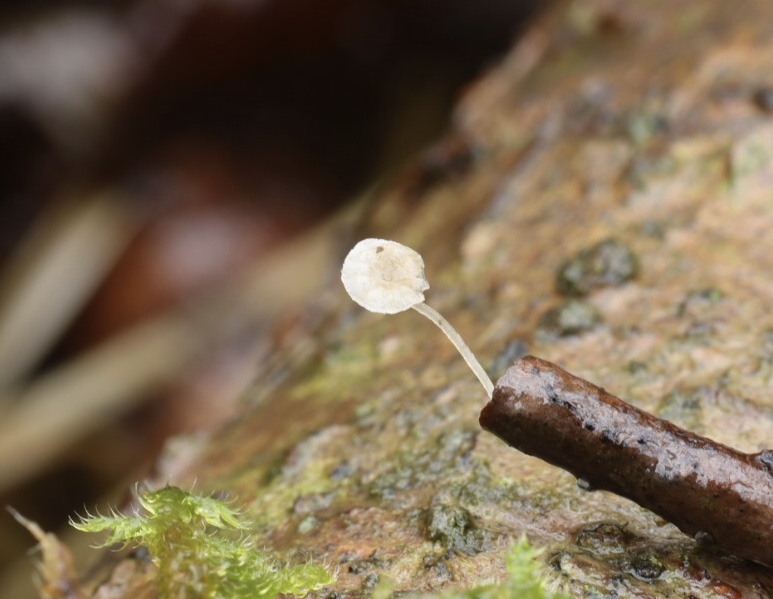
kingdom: Fungi
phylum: Basidiomycota
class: Agaricomycetes
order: Agaricales
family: Porotheleaceae
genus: Phloeomana
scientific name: Phloeomana speirea
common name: kvist-huesvamp
